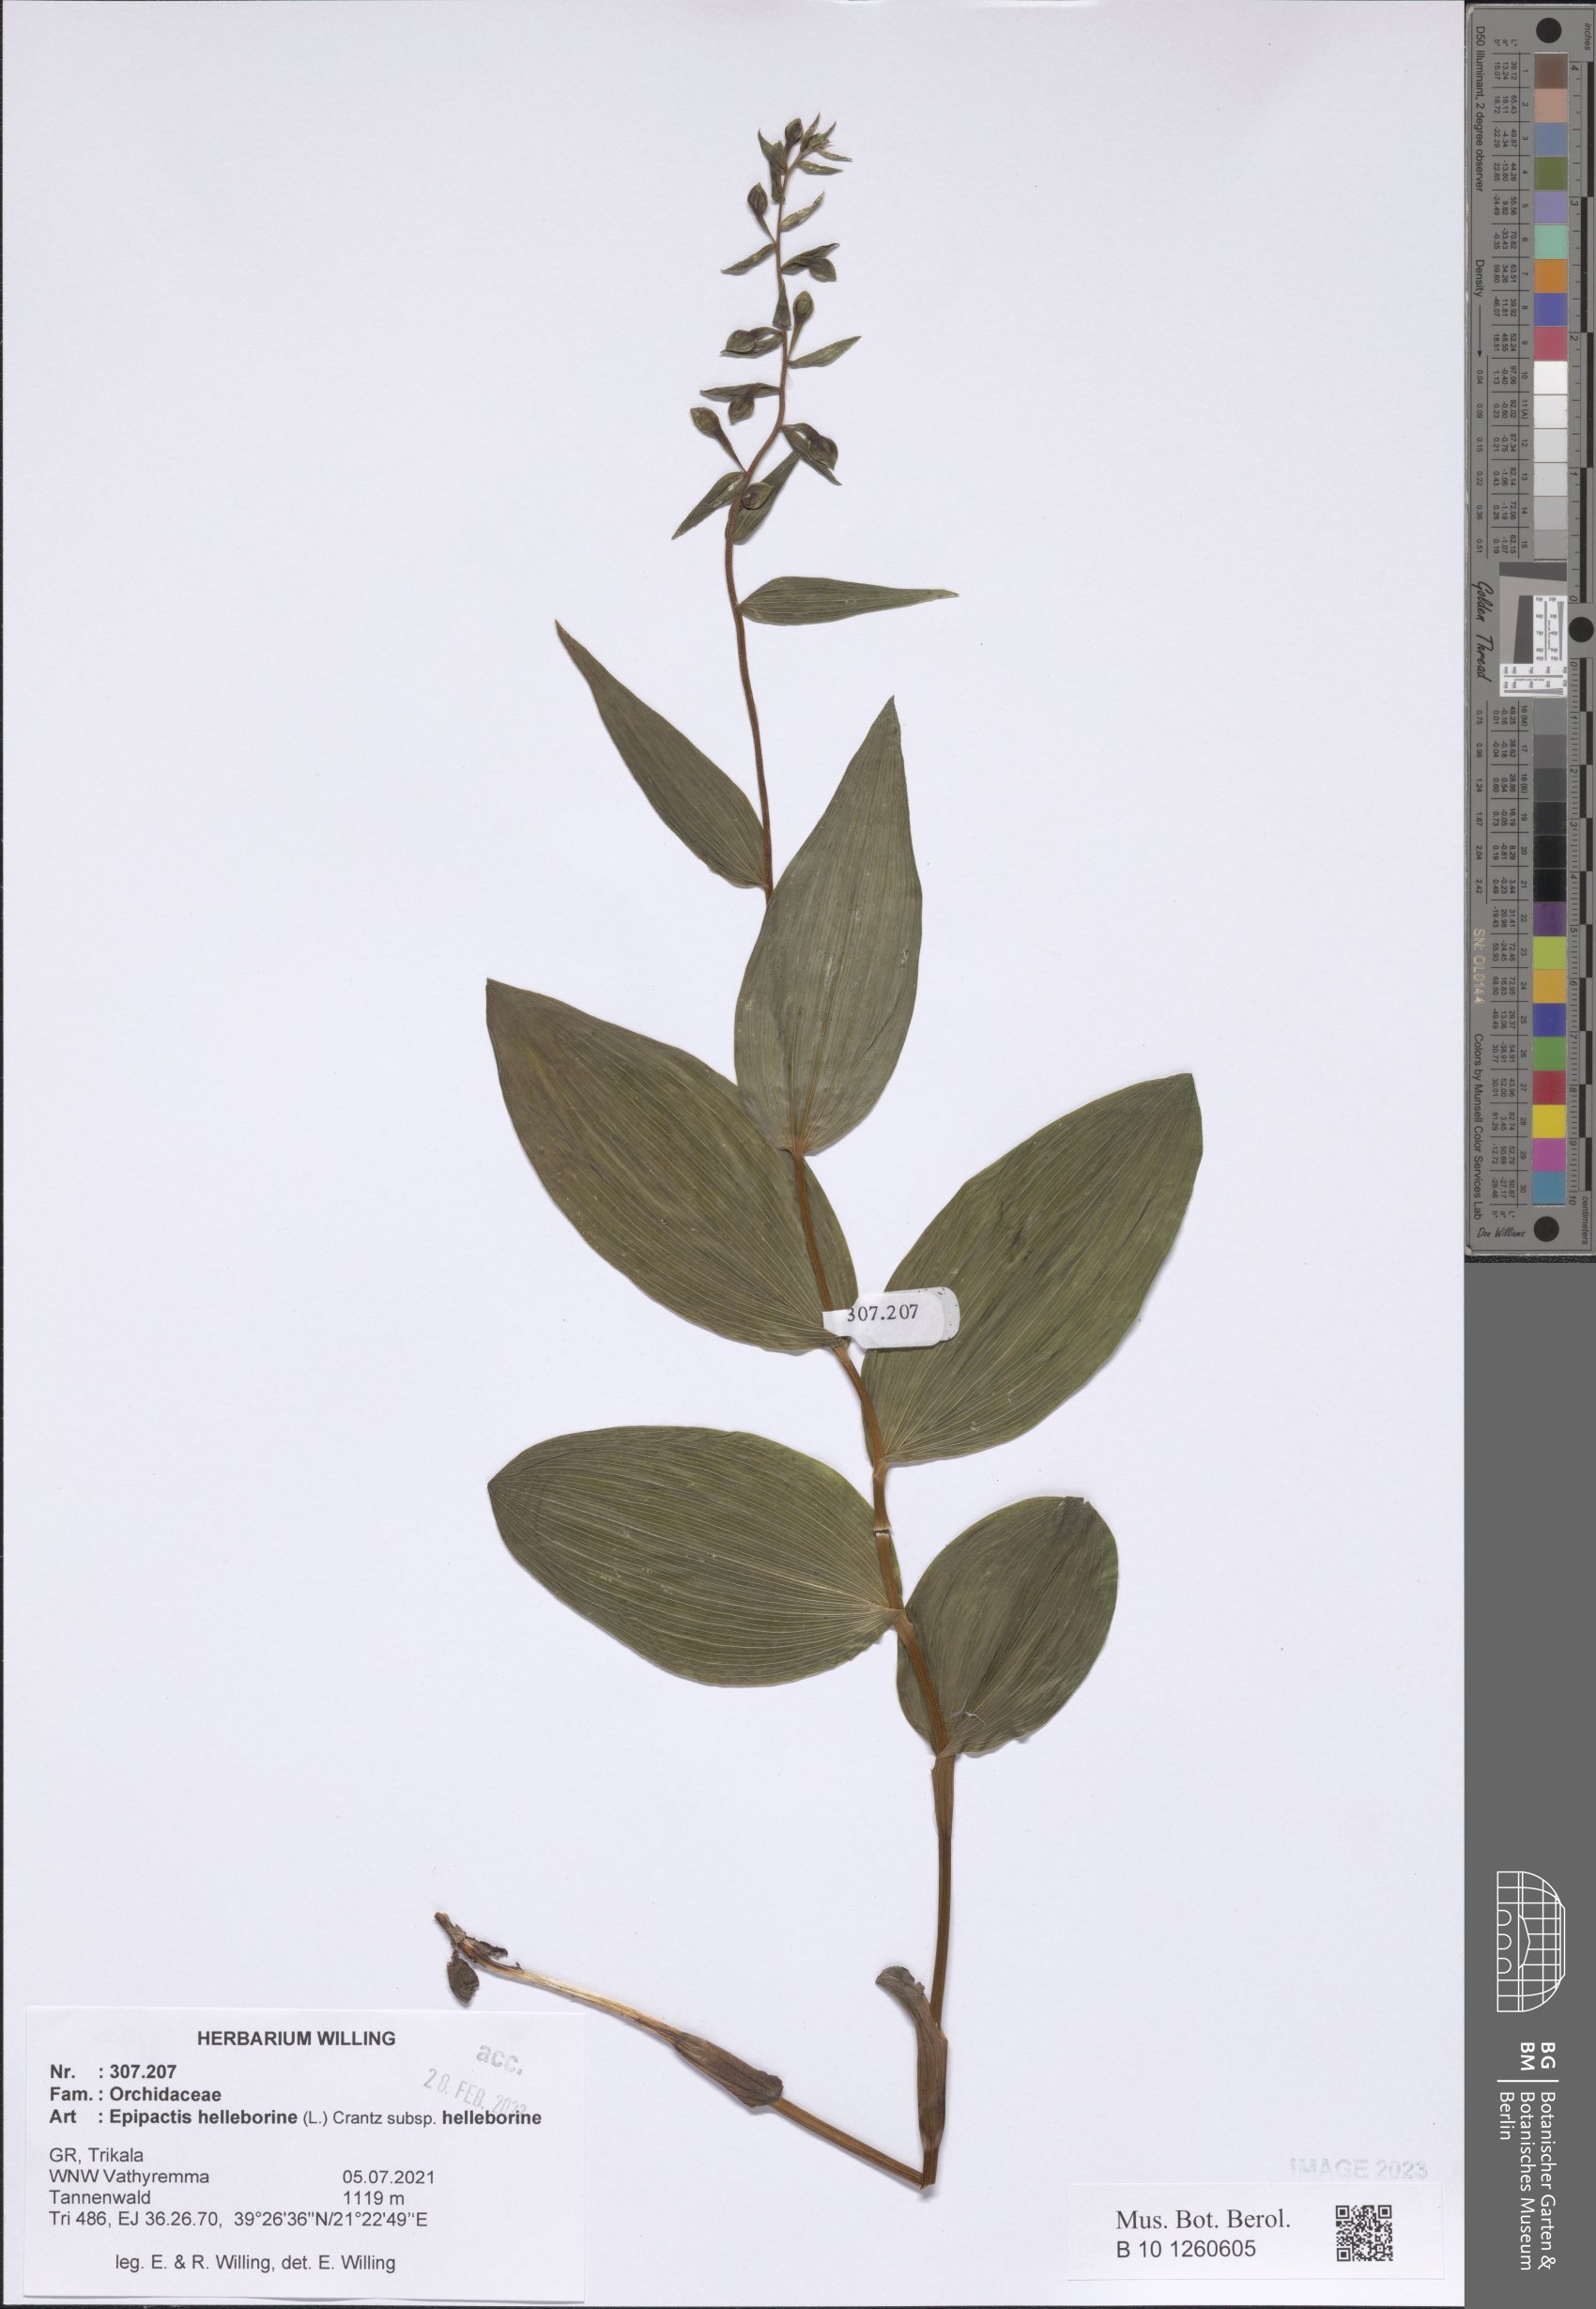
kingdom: Plantae
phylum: Tracheophyta
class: Liliopsida
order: Asparagales
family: Orchidaceae
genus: Epipactis
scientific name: Epipactis helleborine
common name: Broad-leaved helleborine
